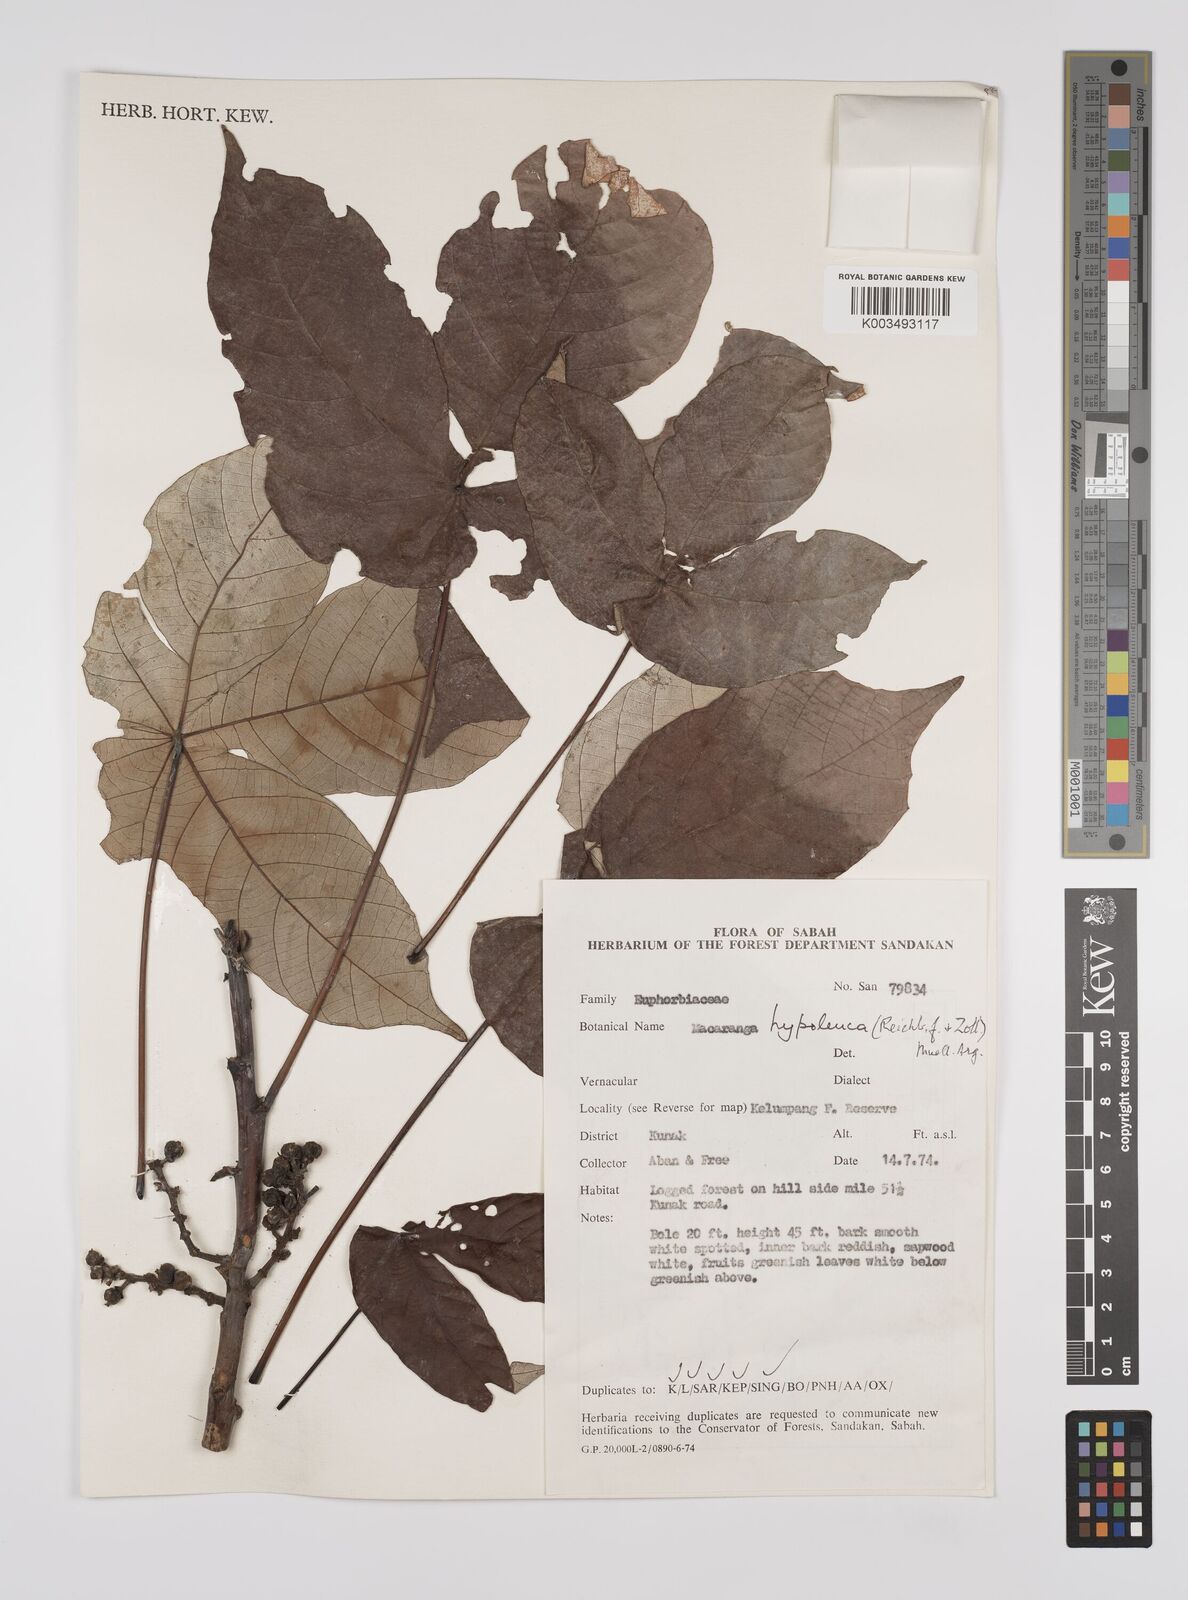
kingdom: Plantae
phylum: Tracheophyta
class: Magnoliopsida
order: Malpighiales
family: Euphorbiaceae
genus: Macaranga
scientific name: Macaranga hypoleuca
